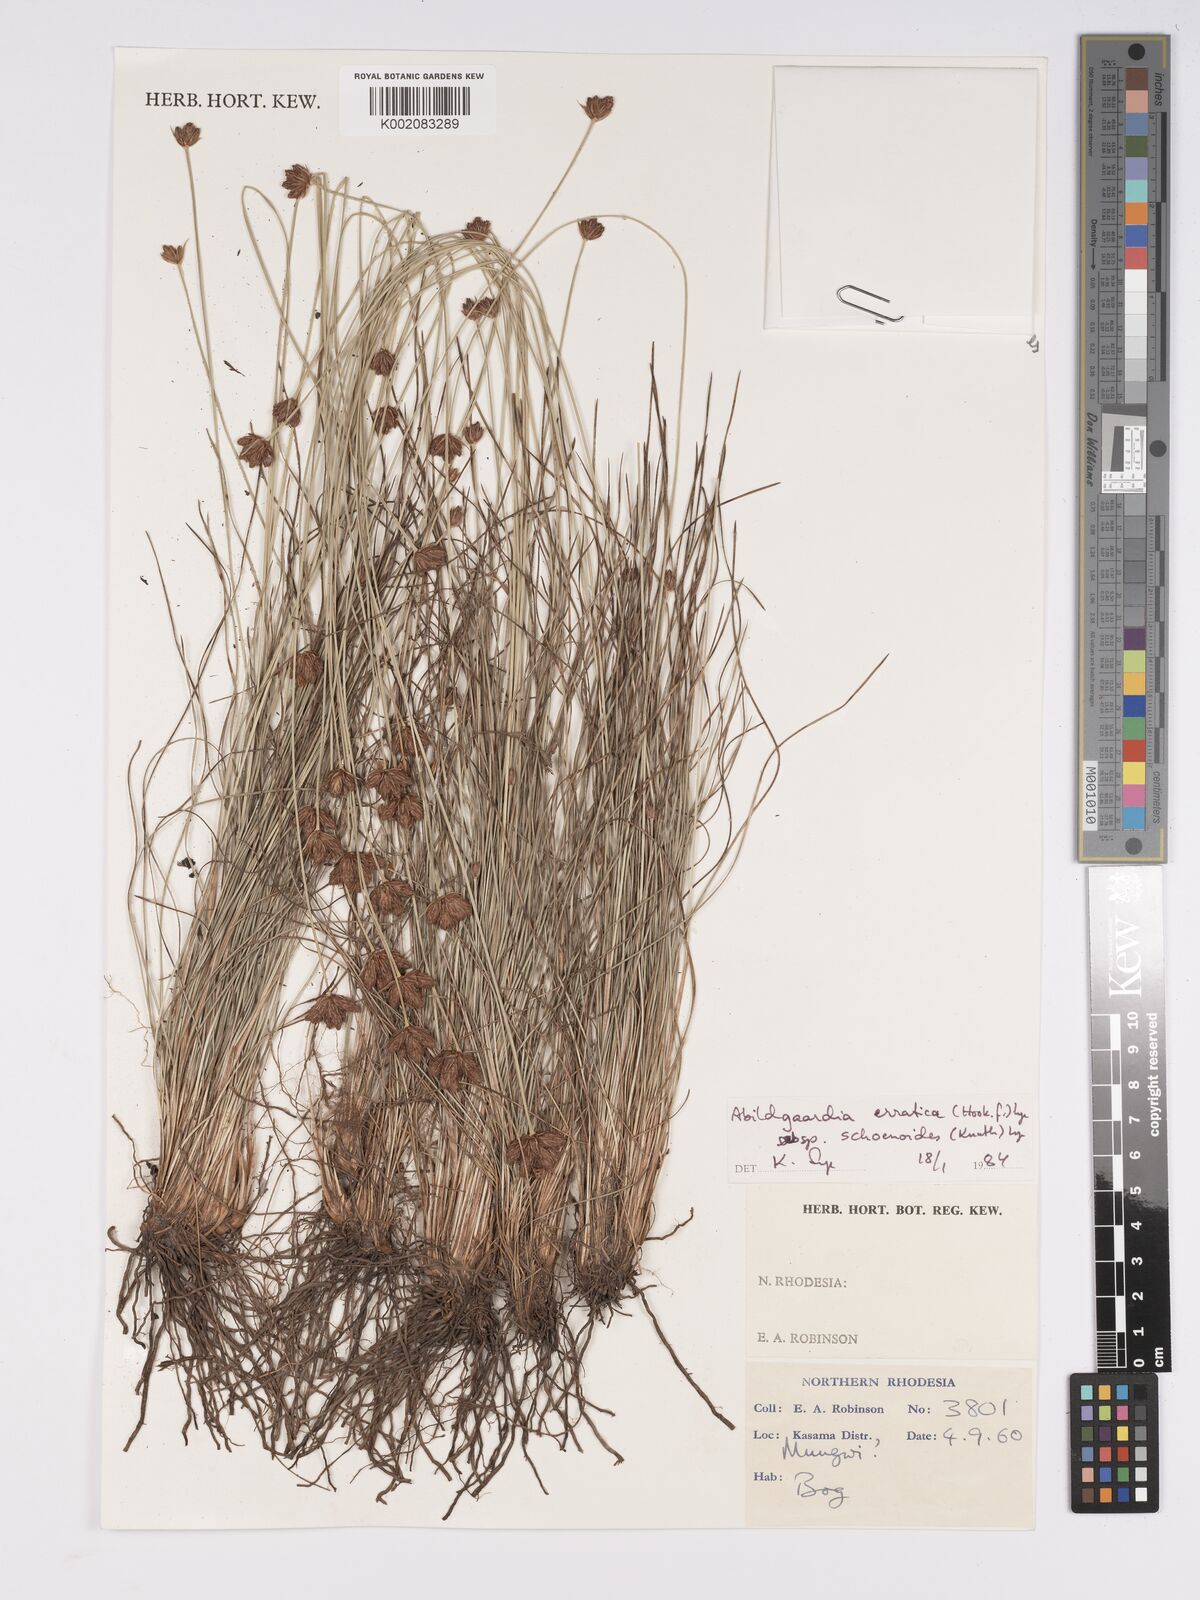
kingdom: Plantae
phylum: Tracheophyta
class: Liliopsida
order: Poales
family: Cyperaceae
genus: Bulbostylis
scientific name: Bulbostylis schoenoides
